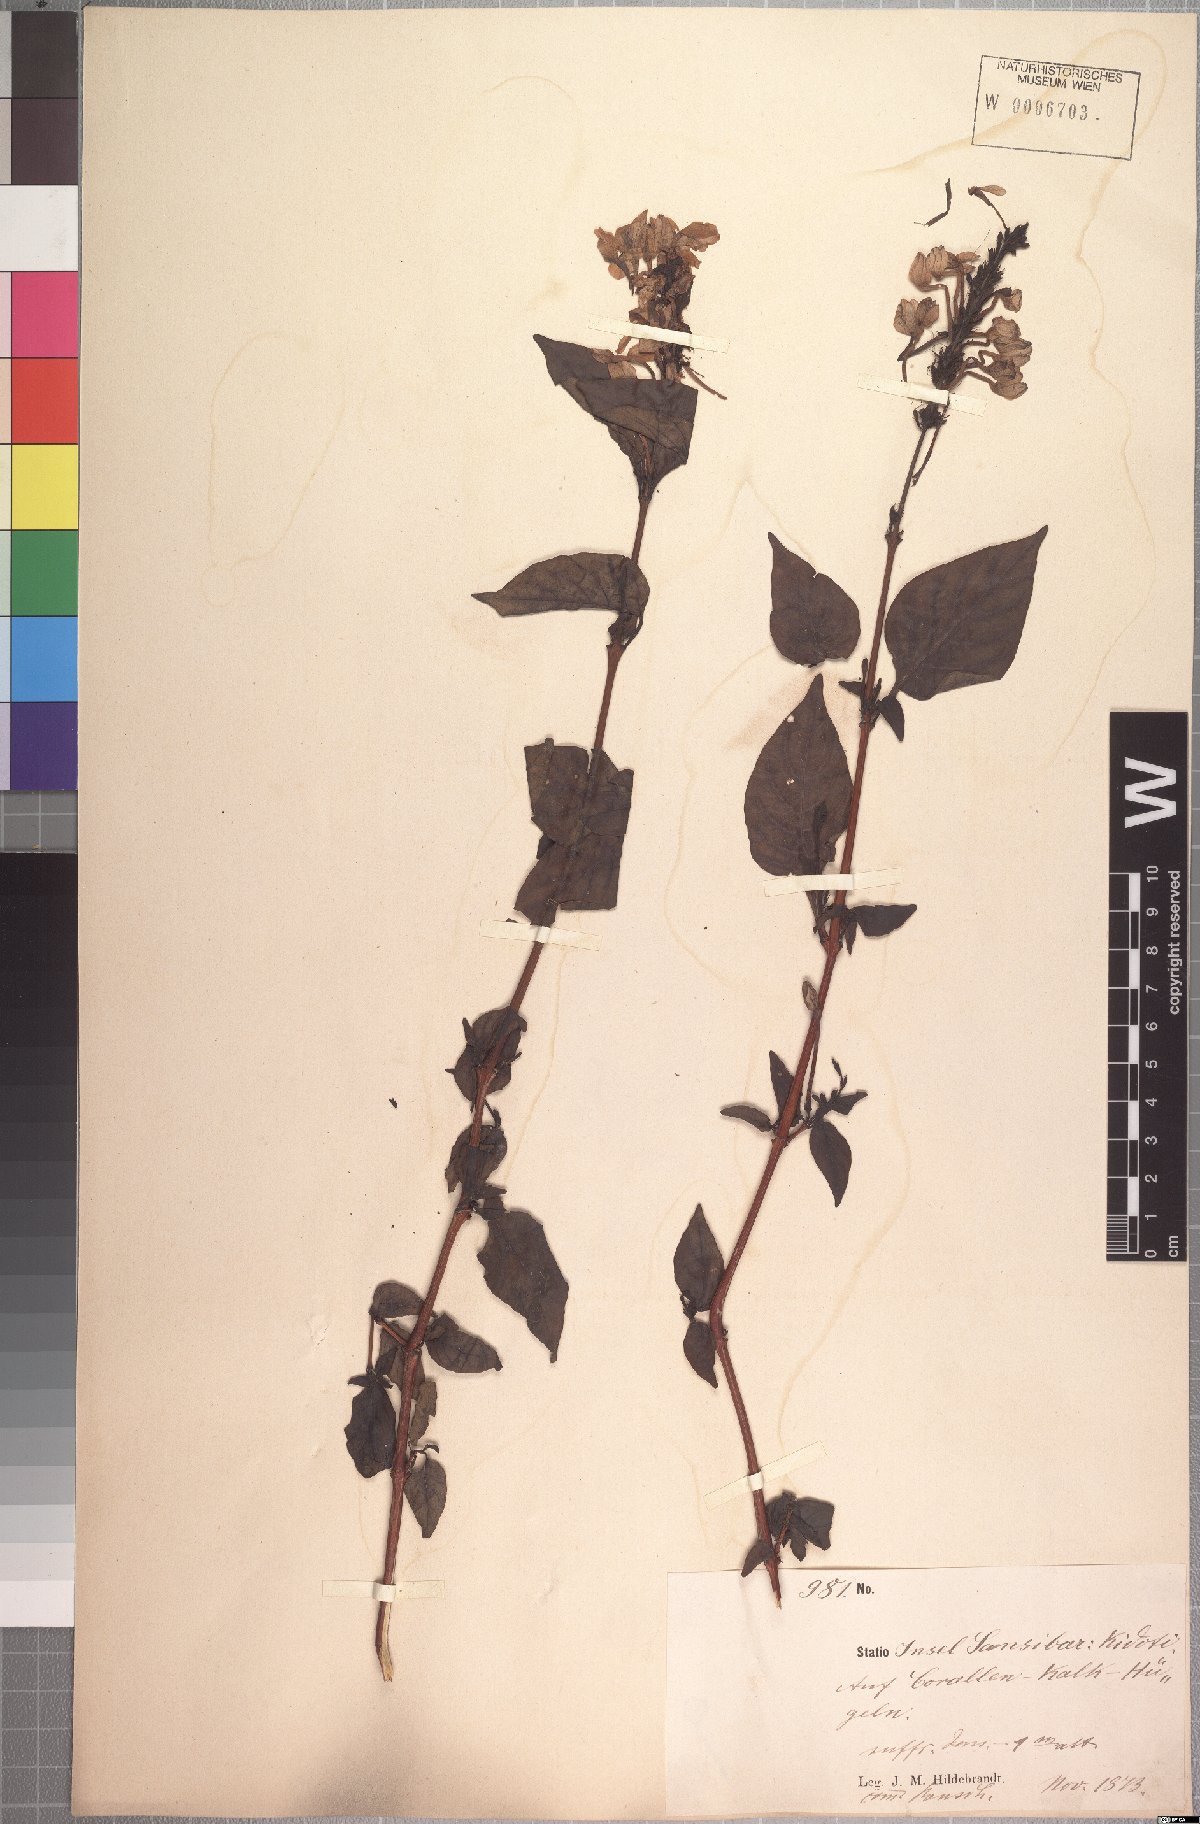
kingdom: Plantae
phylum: Tracheophyta
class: Magnoliopsida
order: Lamiales
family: Acanthaceae
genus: Pseuderanthemum
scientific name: Pseuderanthemum hildebrandtii
